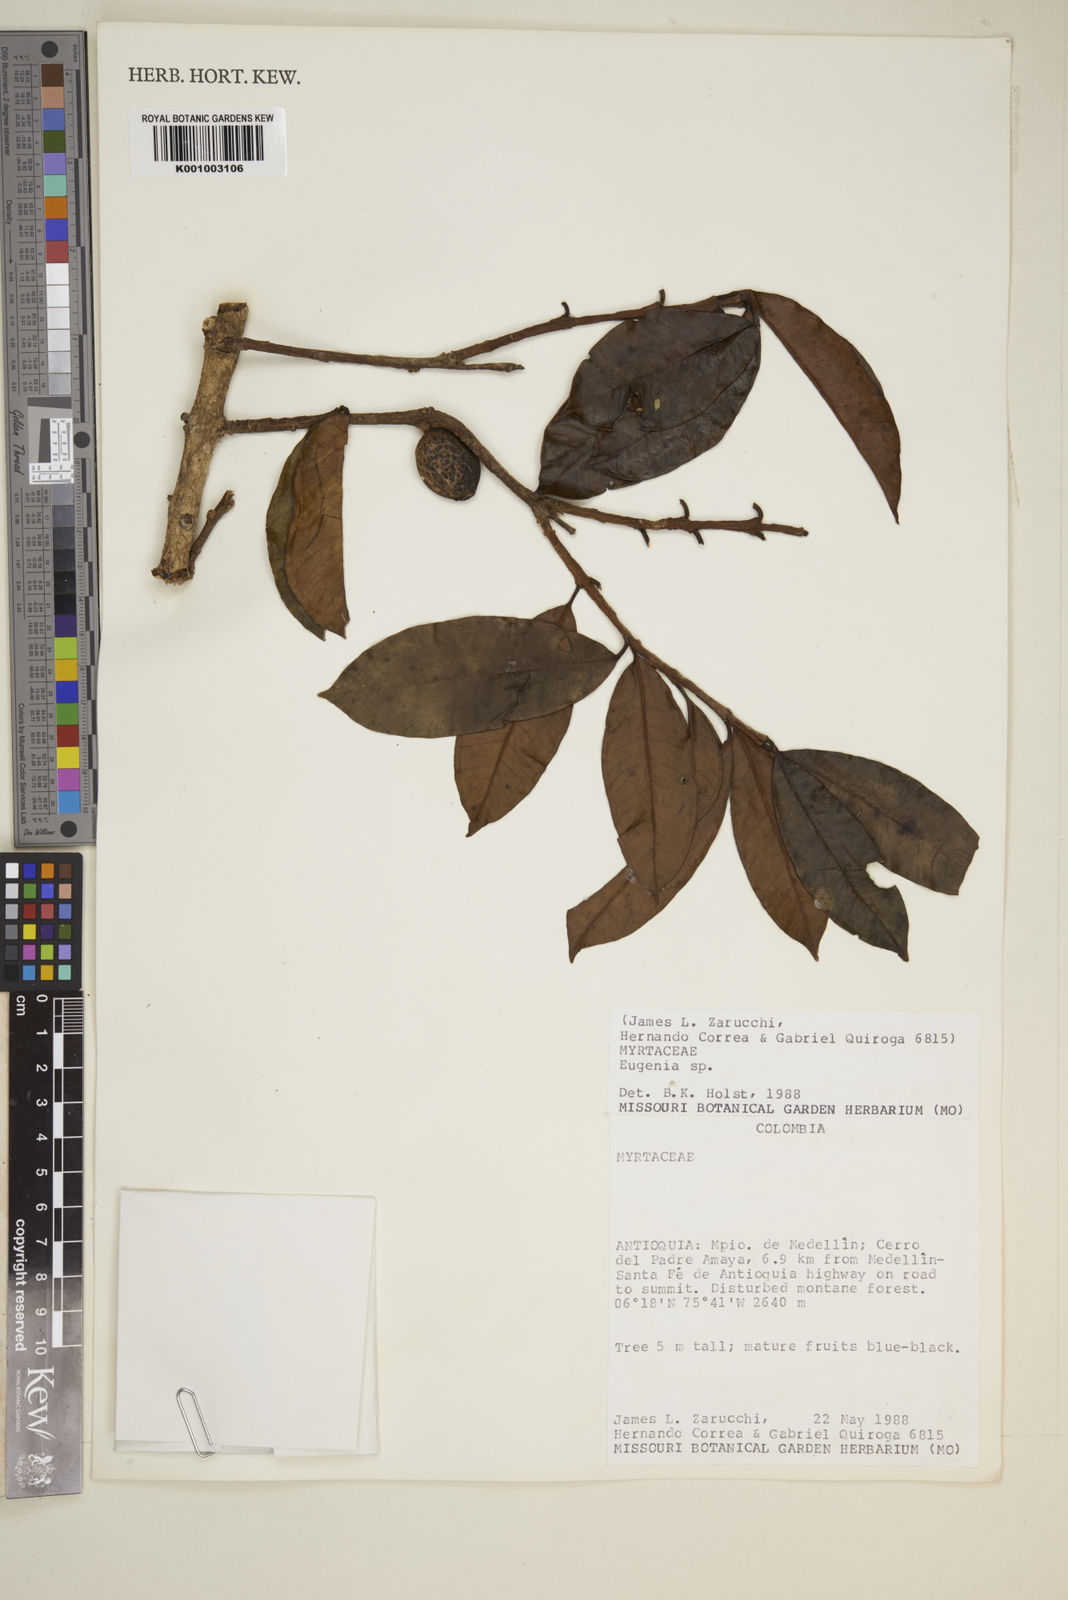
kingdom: Plantae
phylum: Tracheophyta
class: Magnoliopsida
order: Myrtales
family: Myrtaceae
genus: Eugenia
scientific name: Eugenia
